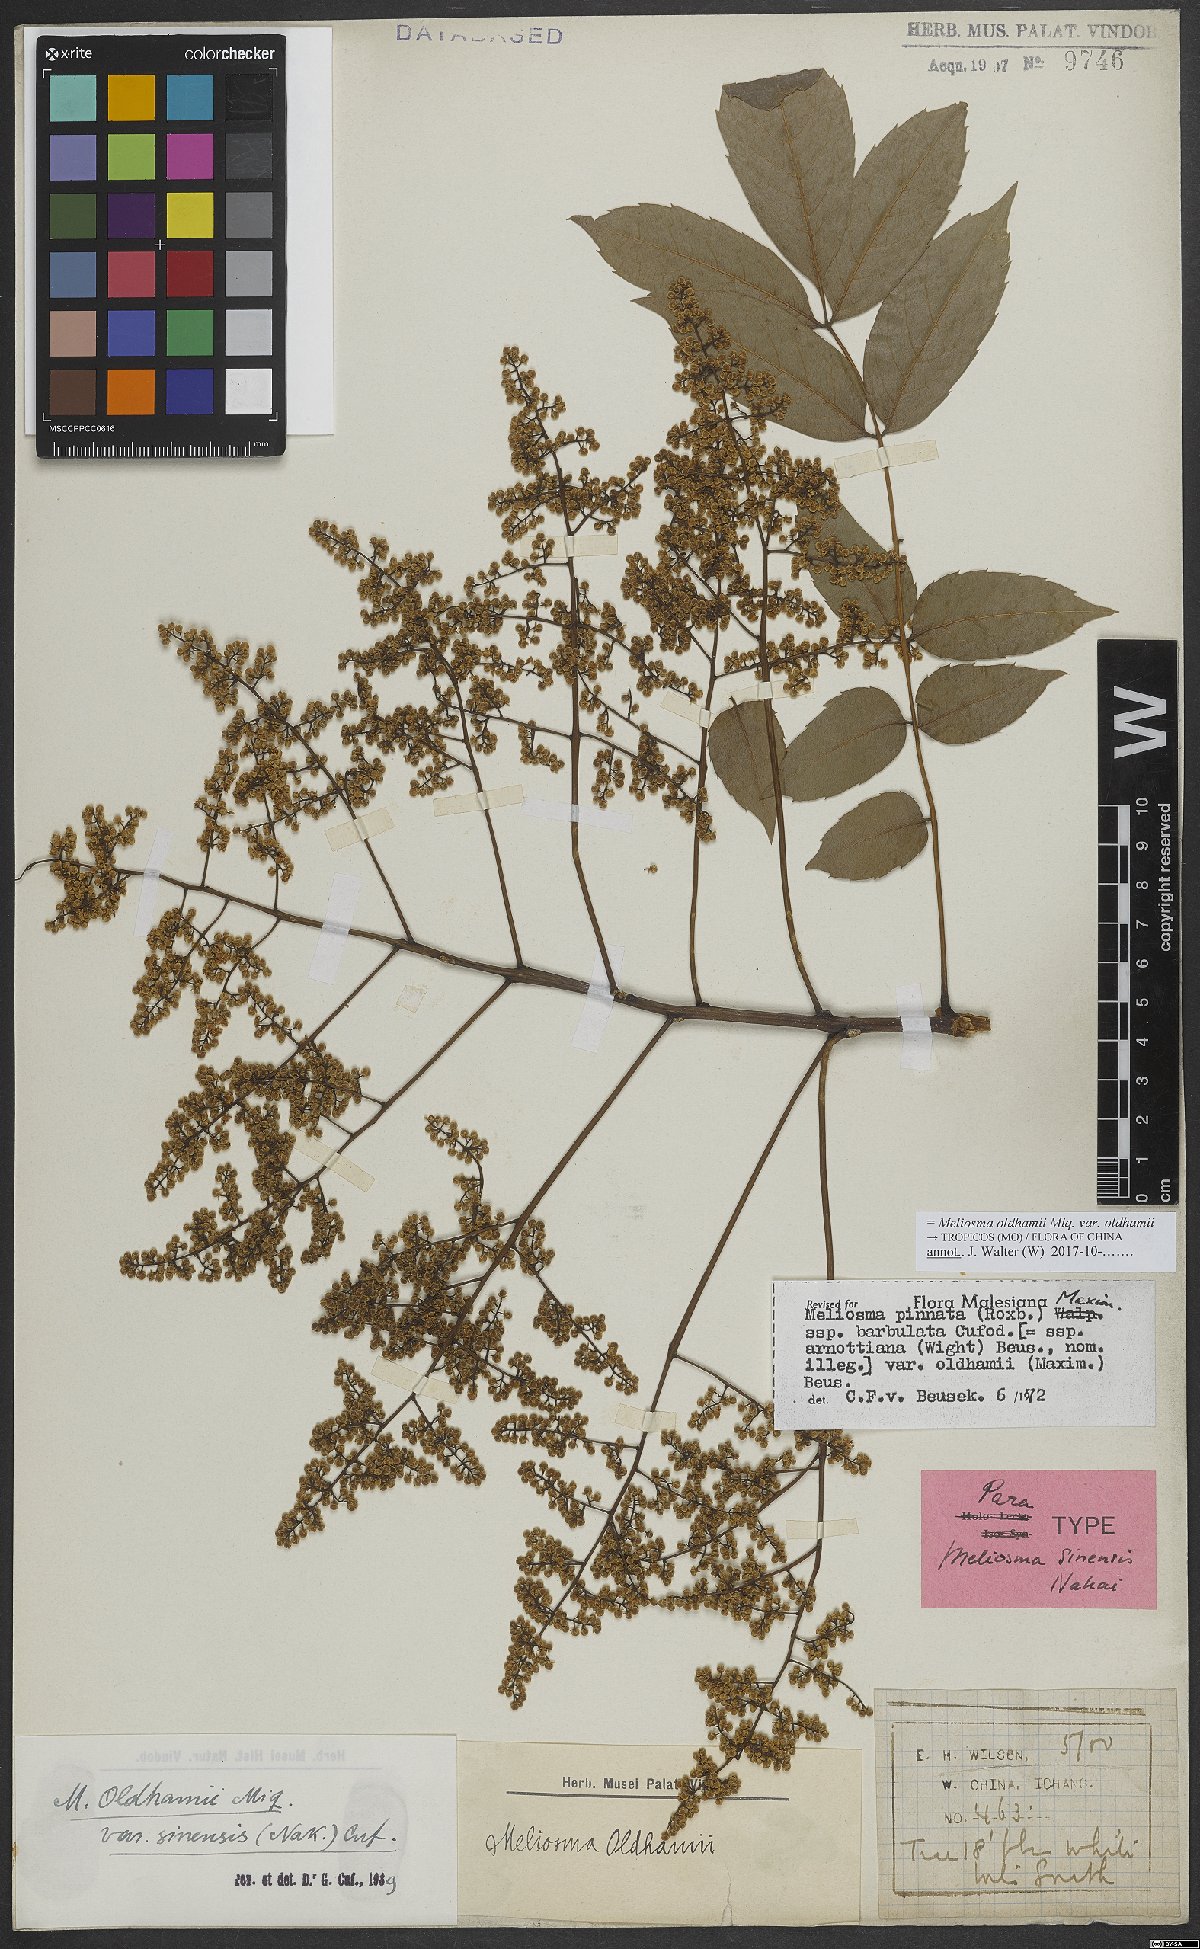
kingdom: Plantae
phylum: Tracheophyta
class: Magnoliopsida
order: Proteales
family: Sabiaceae
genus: Meliosma
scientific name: Meliosma oldhamii
